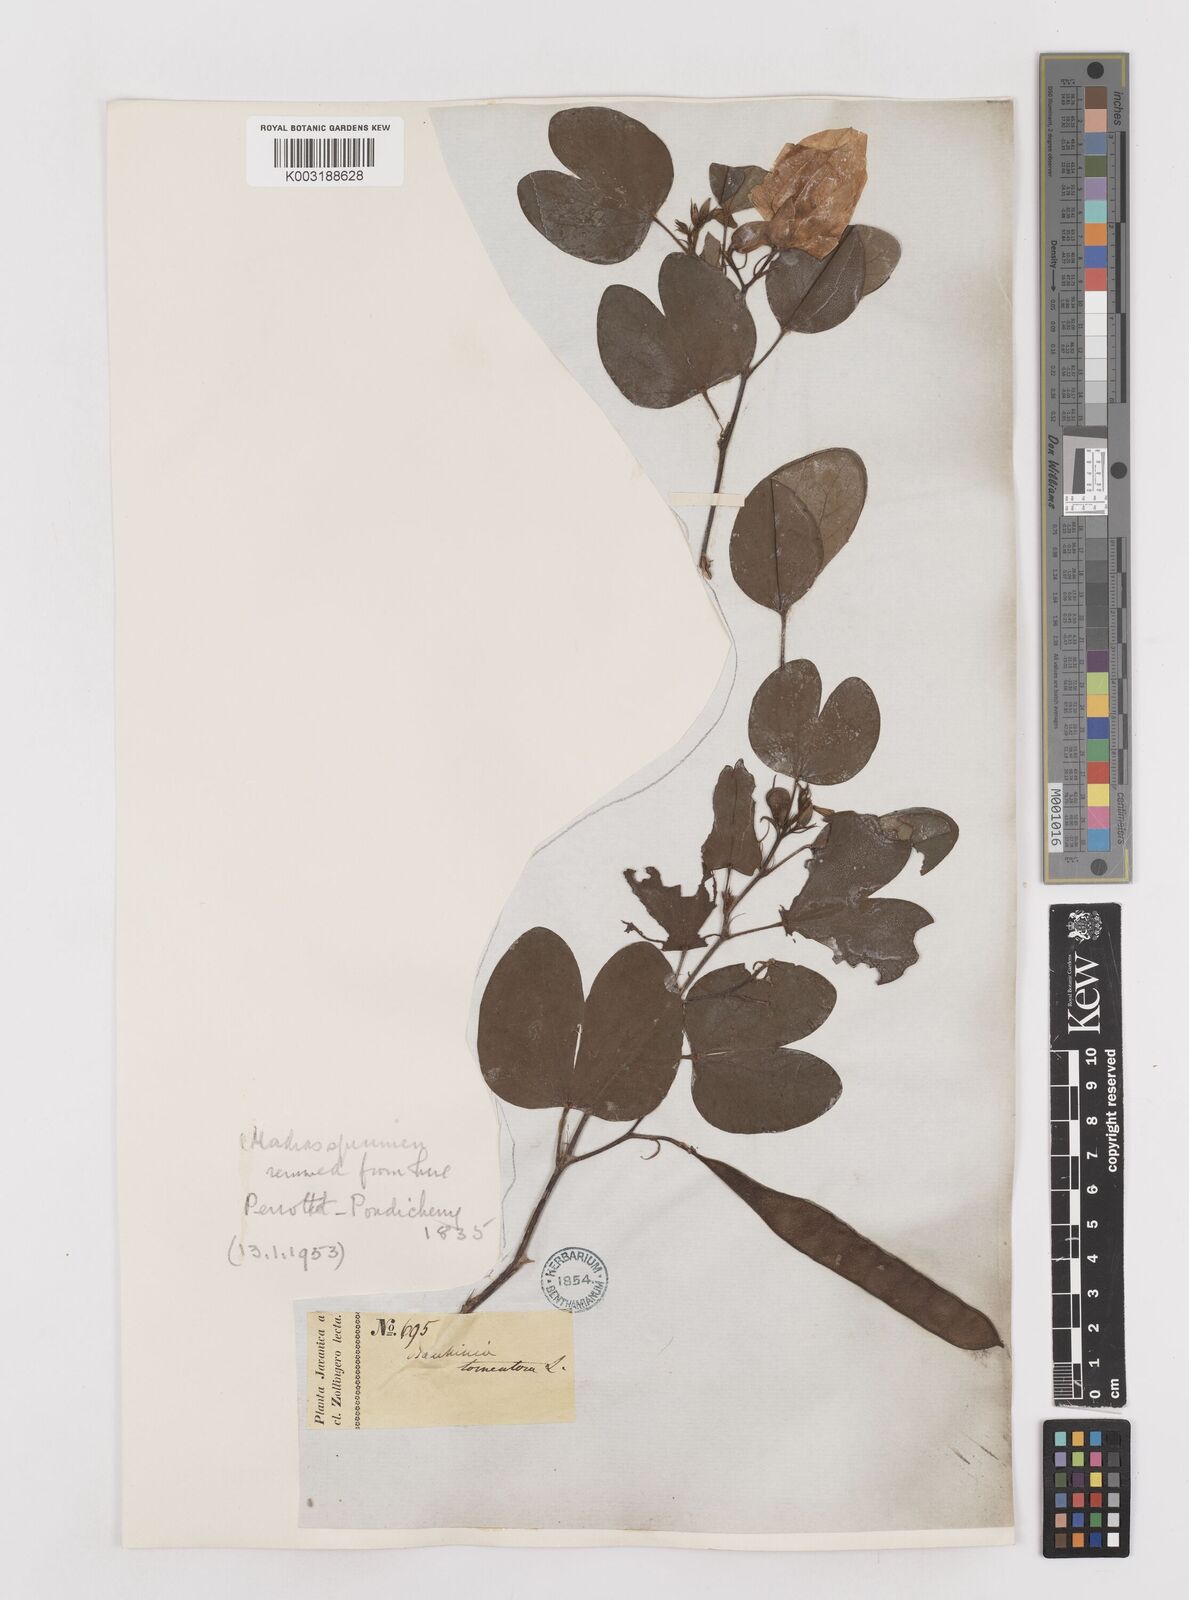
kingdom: Plantae
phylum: Tracheophyta
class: Magnoliopsida
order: Fabales
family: Fabaceae
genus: Bauhinia
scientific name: Bauhinia tomentosa
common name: Bell bauhinia
